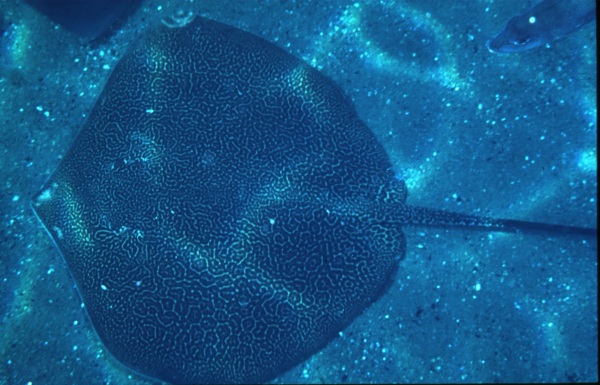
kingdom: Animalia
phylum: Chordata
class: Elasmobranchii
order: Myliobatiformes
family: Dasyatidae
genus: Himantura
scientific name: Himantura uarnak
